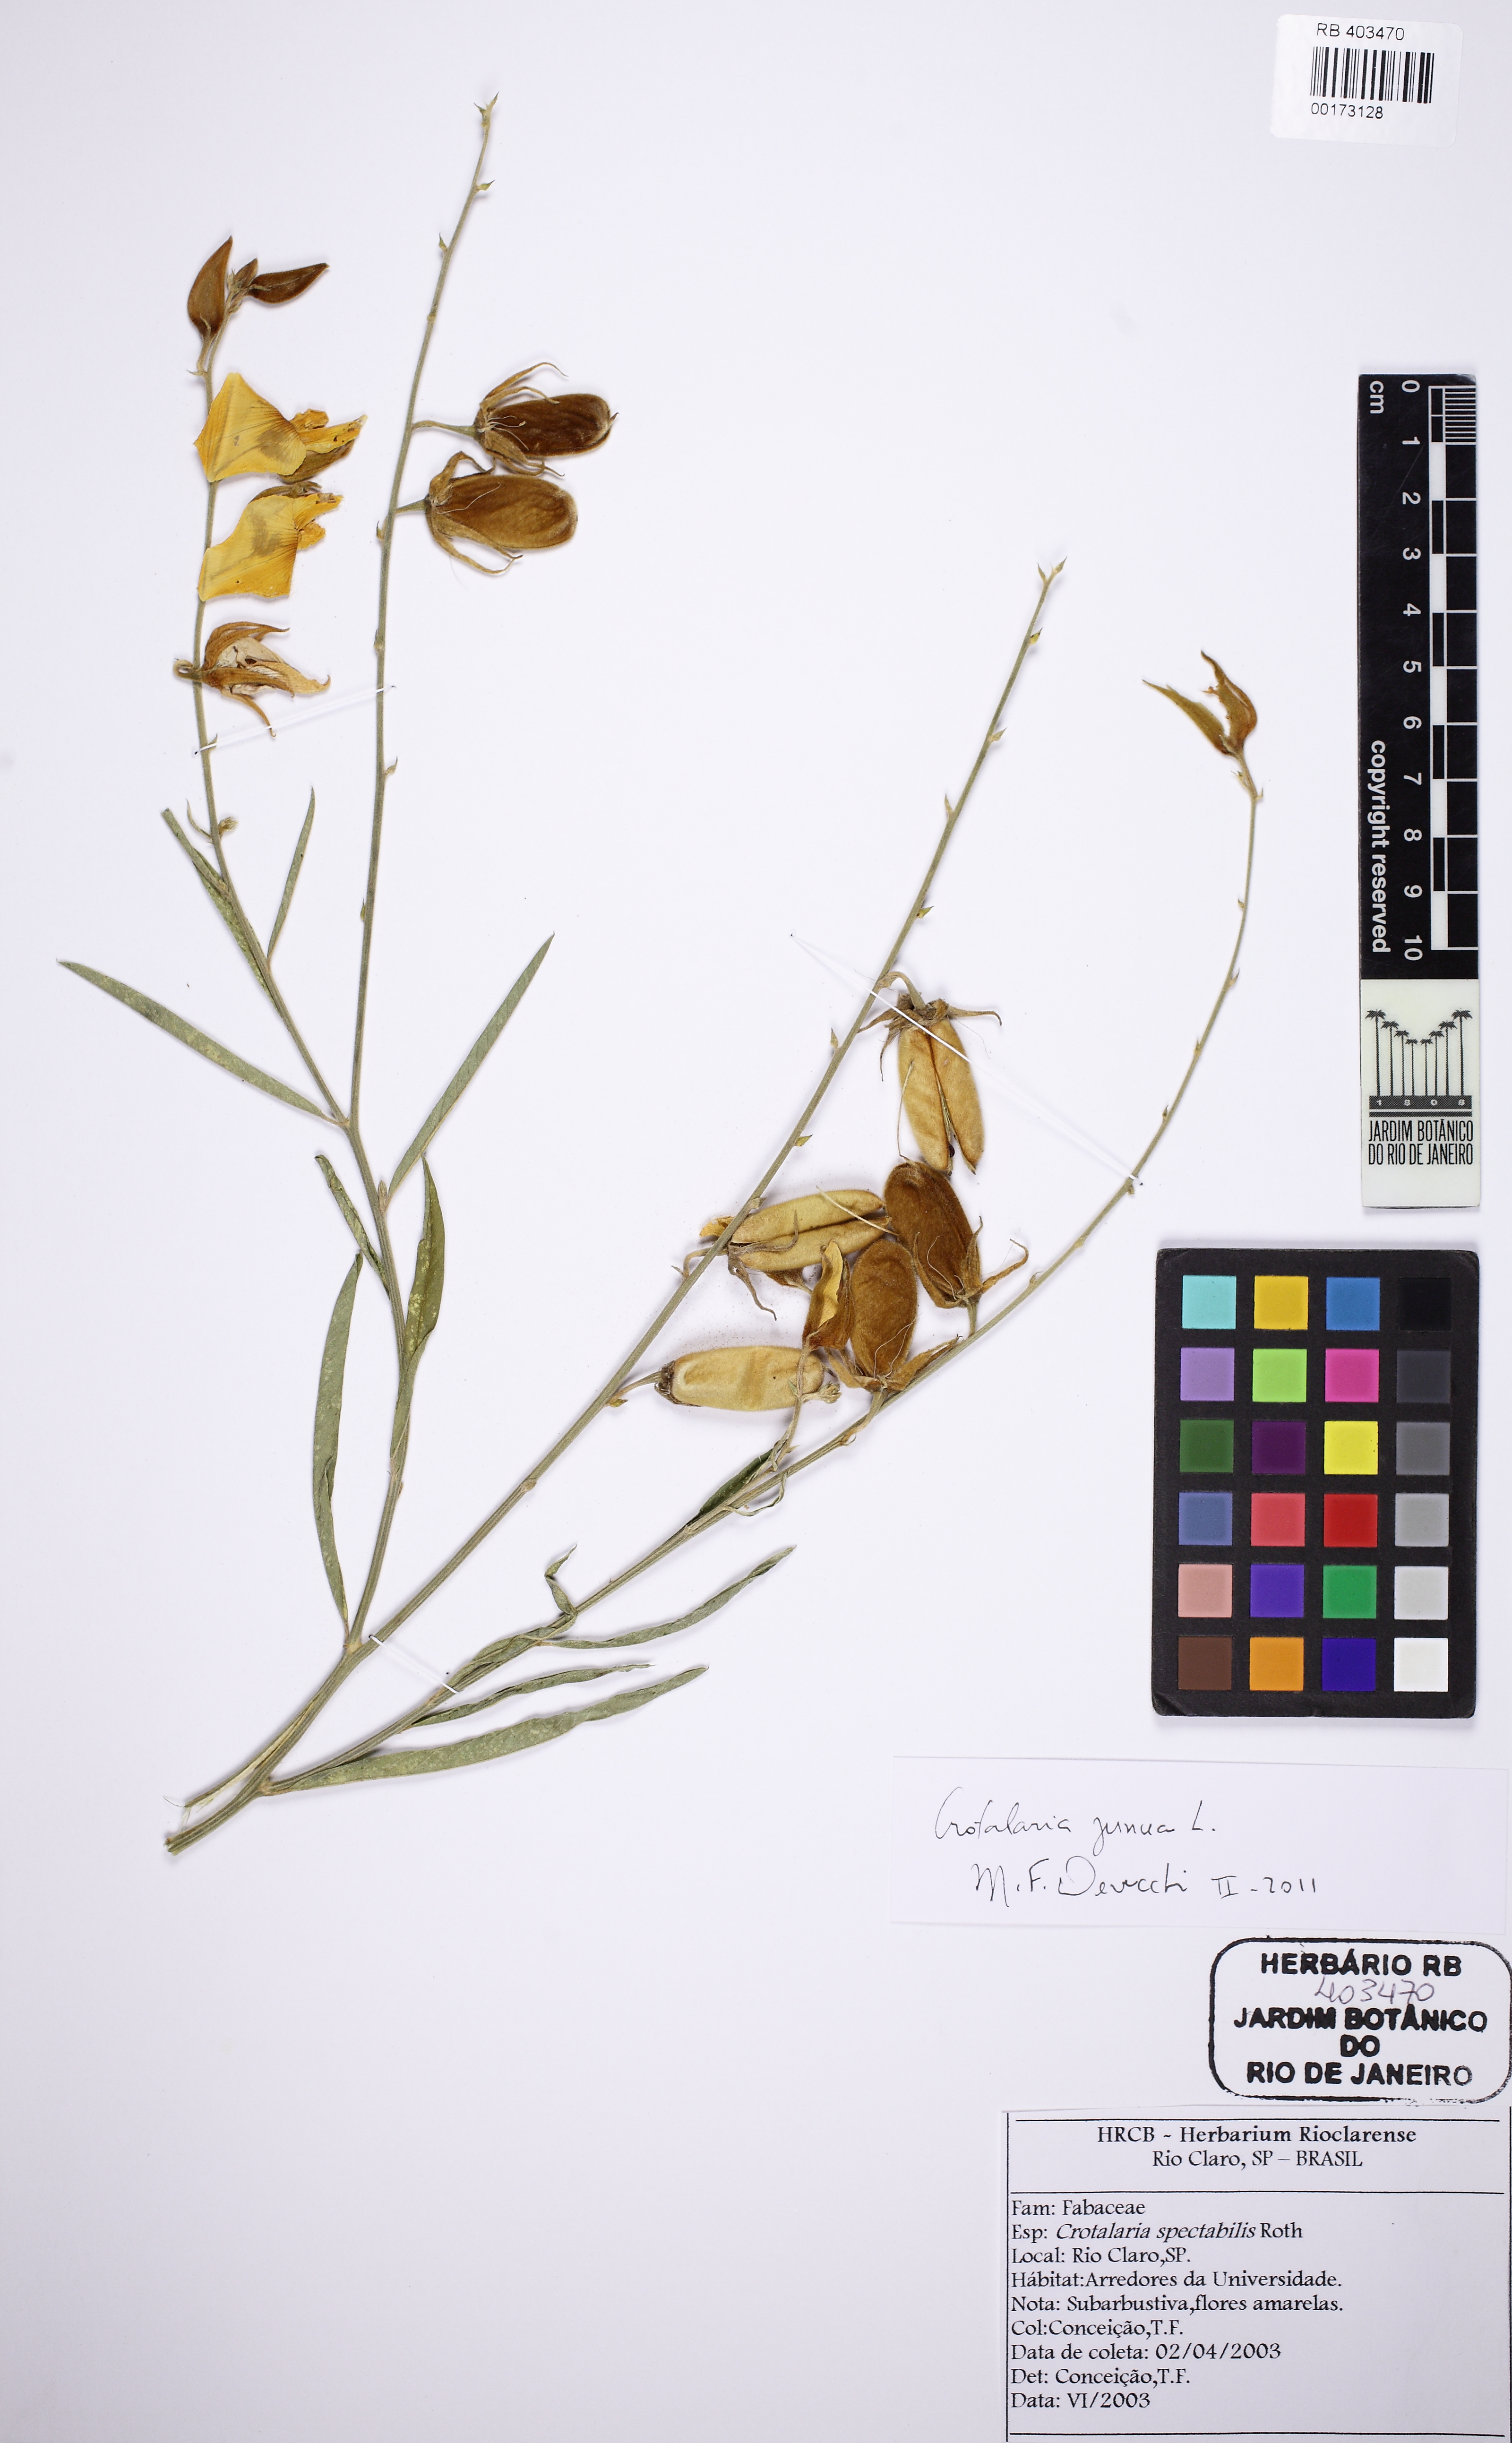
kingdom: Plantae
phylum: Tracheophyta
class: Magnoliopsida
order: Fabales
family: Fabaceae
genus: Crotalaria
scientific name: Crotalaria juncea
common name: Sunn hemp
